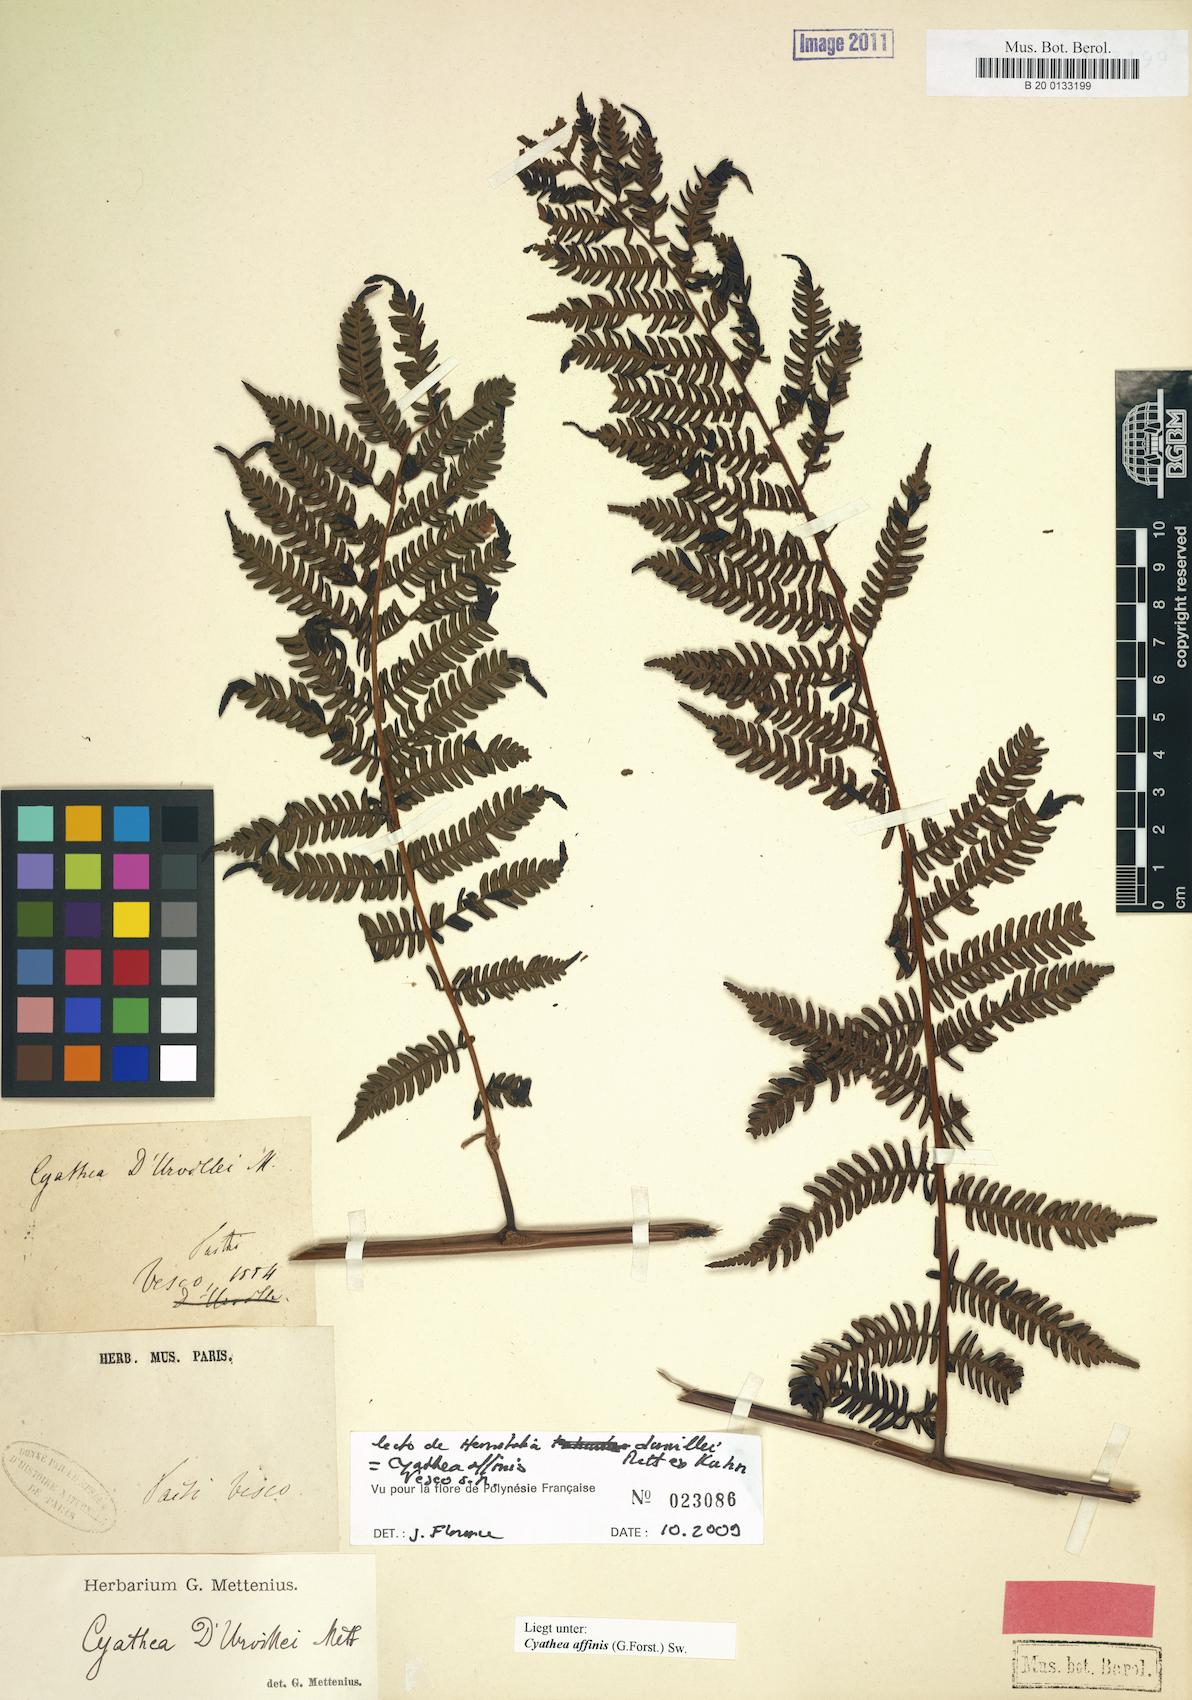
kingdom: Plantae
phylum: Tracheophyta
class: Polypodiopsida
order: Cyatheales
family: Cyatheaceae
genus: Alsophila
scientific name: Alsophila tahitensis
